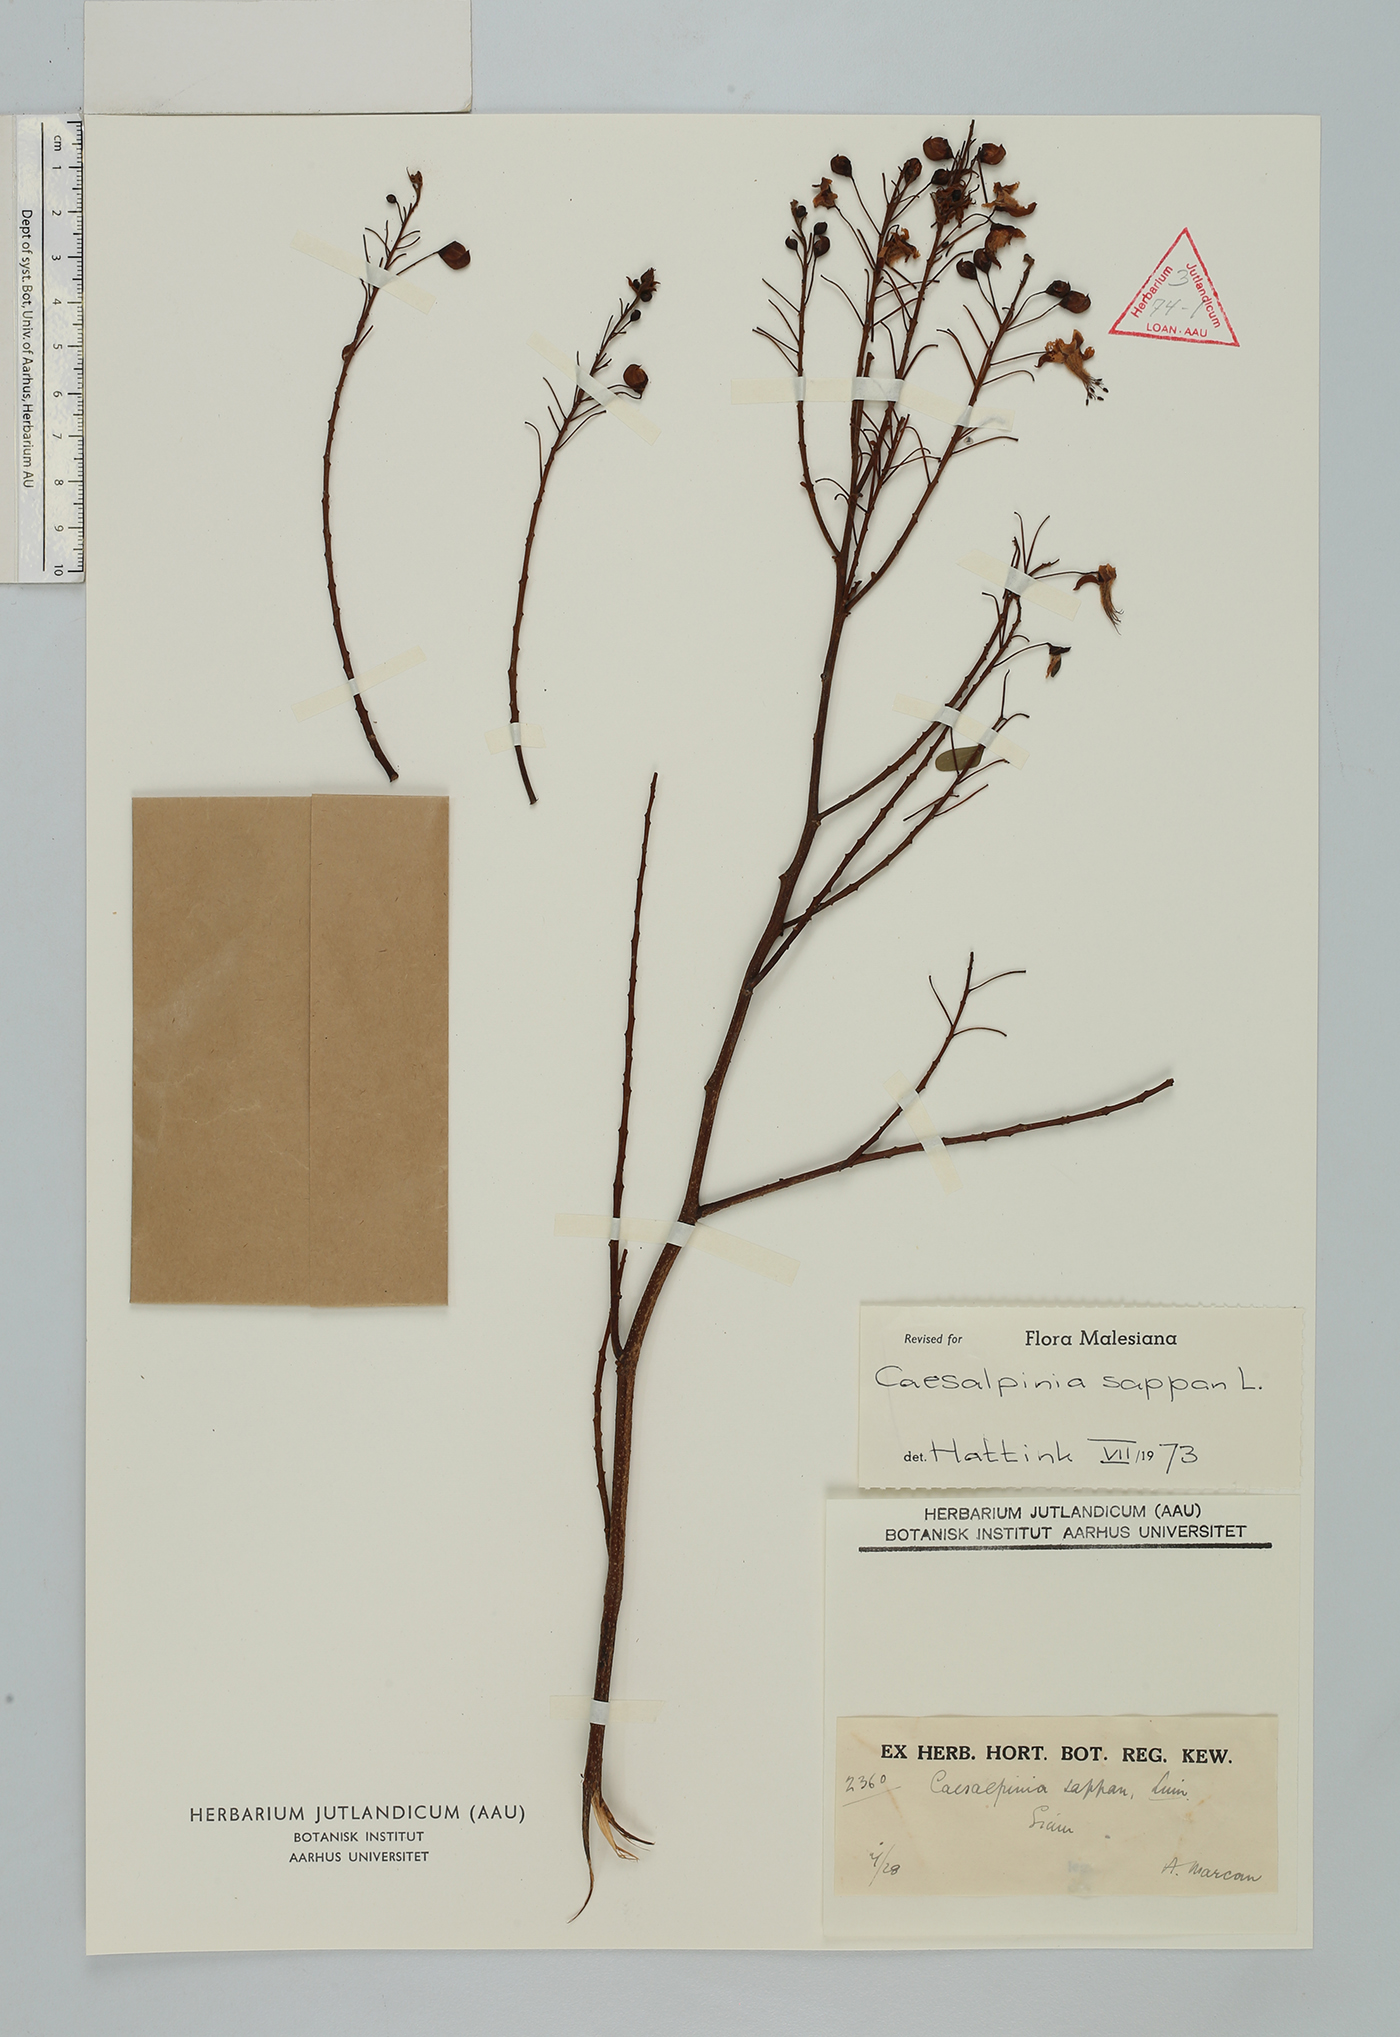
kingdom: Plantae
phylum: Tracheophyta
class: Magnoliopsida
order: Fabales
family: Fabaceae
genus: Biancaea
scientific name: Biancaea sappan
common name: Sappan
